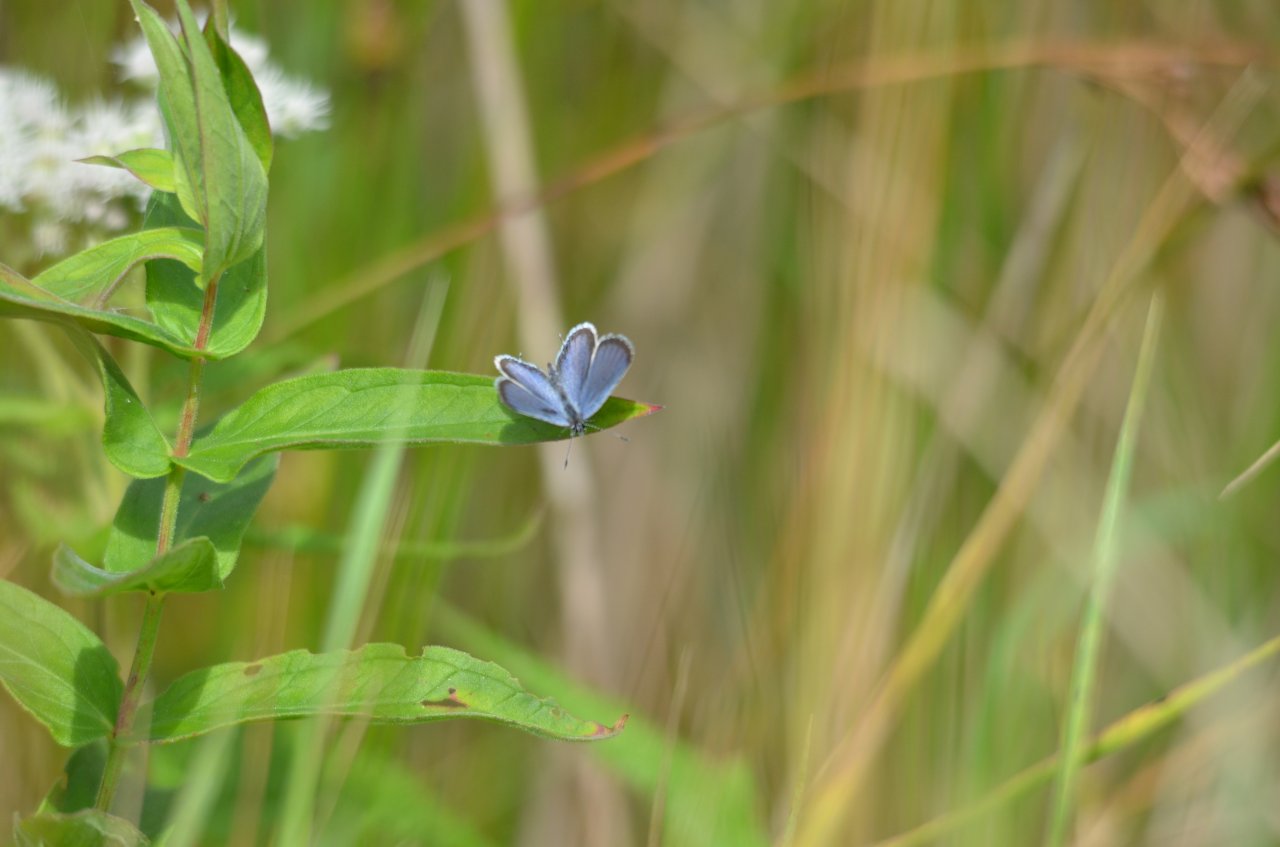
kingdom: Animalia
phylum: Arthropoda
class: Insecta
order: Lepidoptera
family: Lycaenidae
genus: Elkalyce
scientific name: Elkalyce comyntas
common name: Eastern Tailed-Blue
